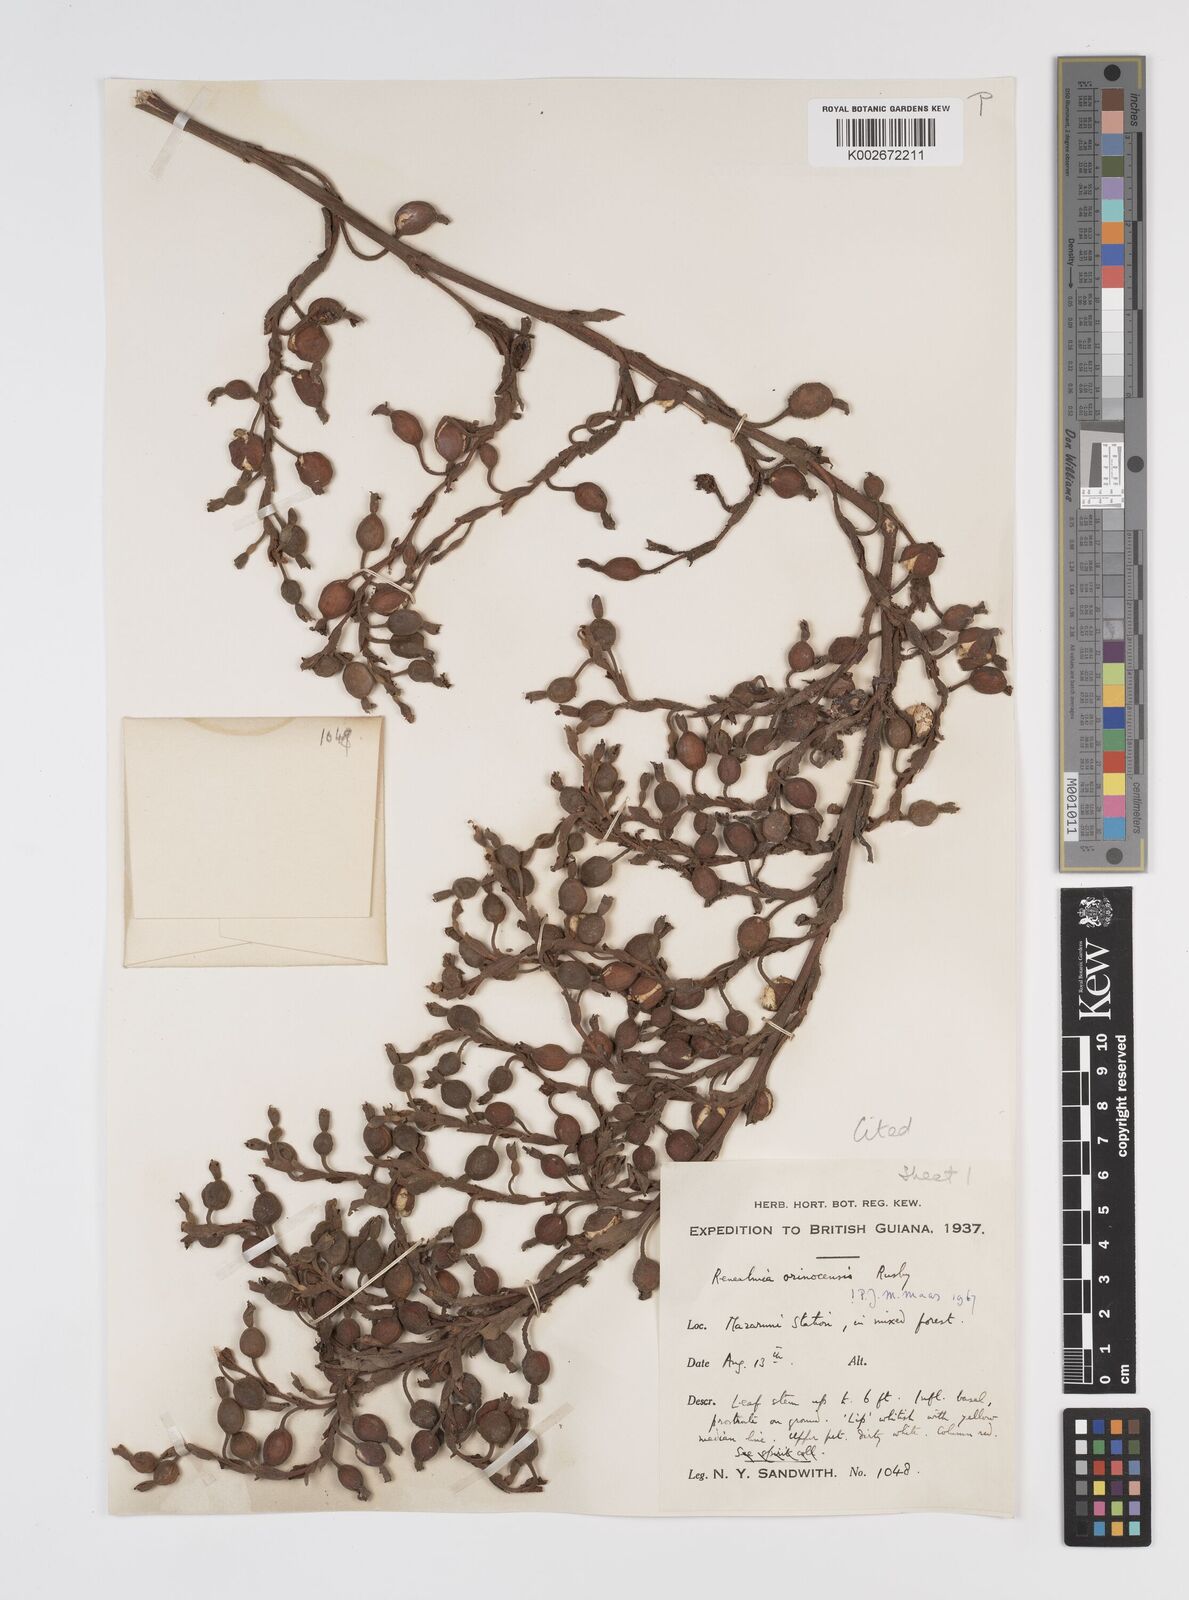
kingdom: Plantae
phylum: Tracheophyta
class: Liliopsida
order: Zingiberales
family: Zingiberaceae
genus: Renealmia
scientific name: Renealmia orinocensis
